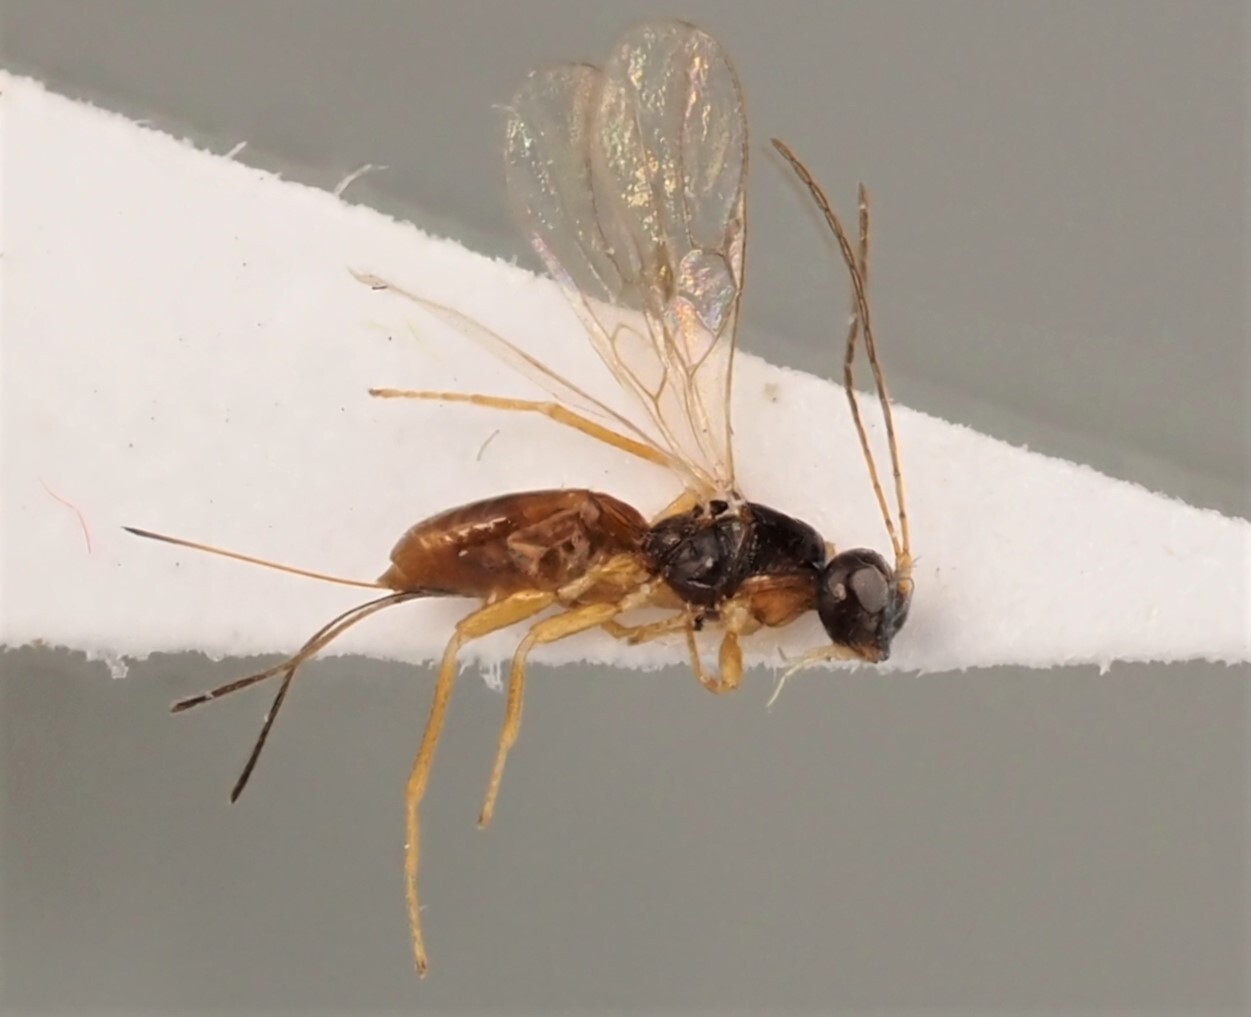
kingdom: Animalia
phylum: Arthropoda
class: Insecta
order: Hymenoptera
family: Braconidae
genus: Ecphylus
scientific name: Ecphylus silesiacus
